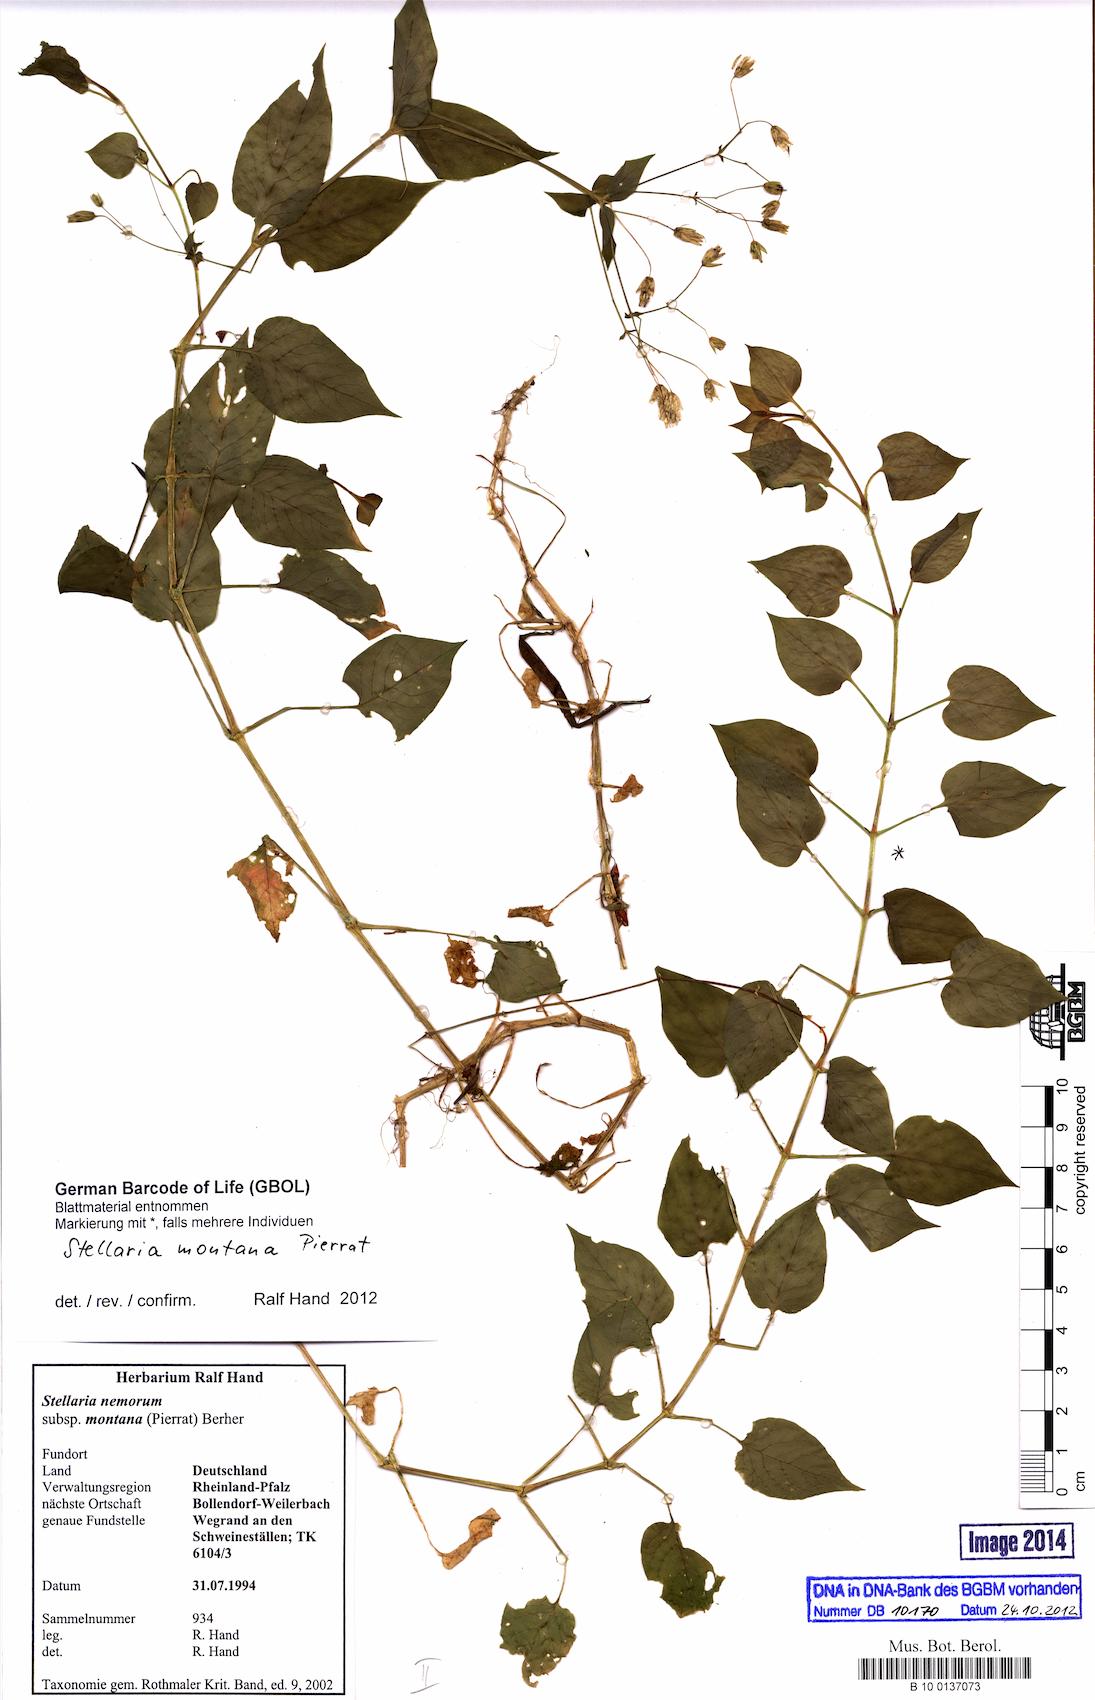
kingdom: Plantae
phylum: Tracheophyta
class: Magnoliopsida
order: Caryophyllales
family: Caryophyllaceae
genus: Stellaria
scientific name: Stellaria glochidisperma
